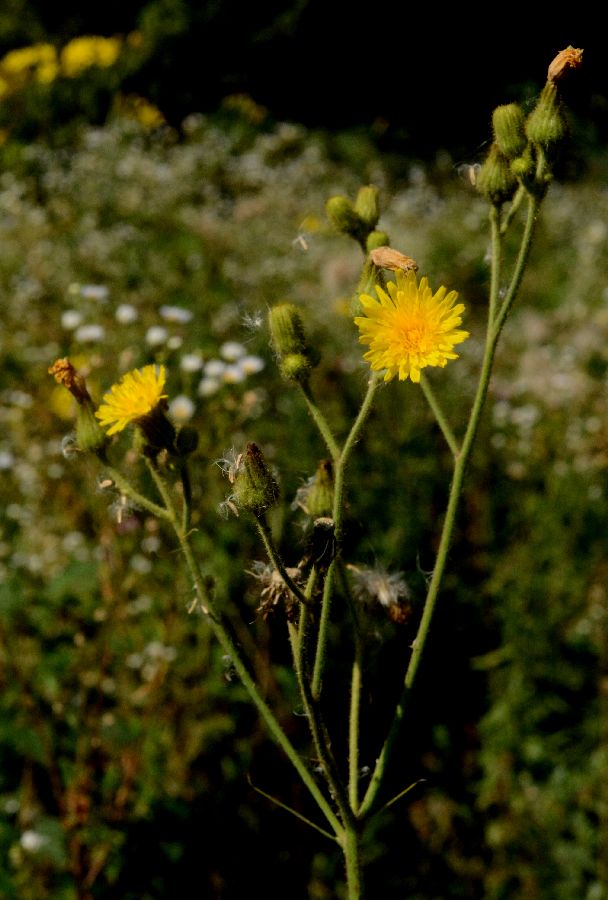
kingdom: Plantae
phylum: Tracheophyta
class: Magnoliopsida
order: Asterales
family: Asteraceae
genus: Sonchus
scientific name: Sonchus palustris
